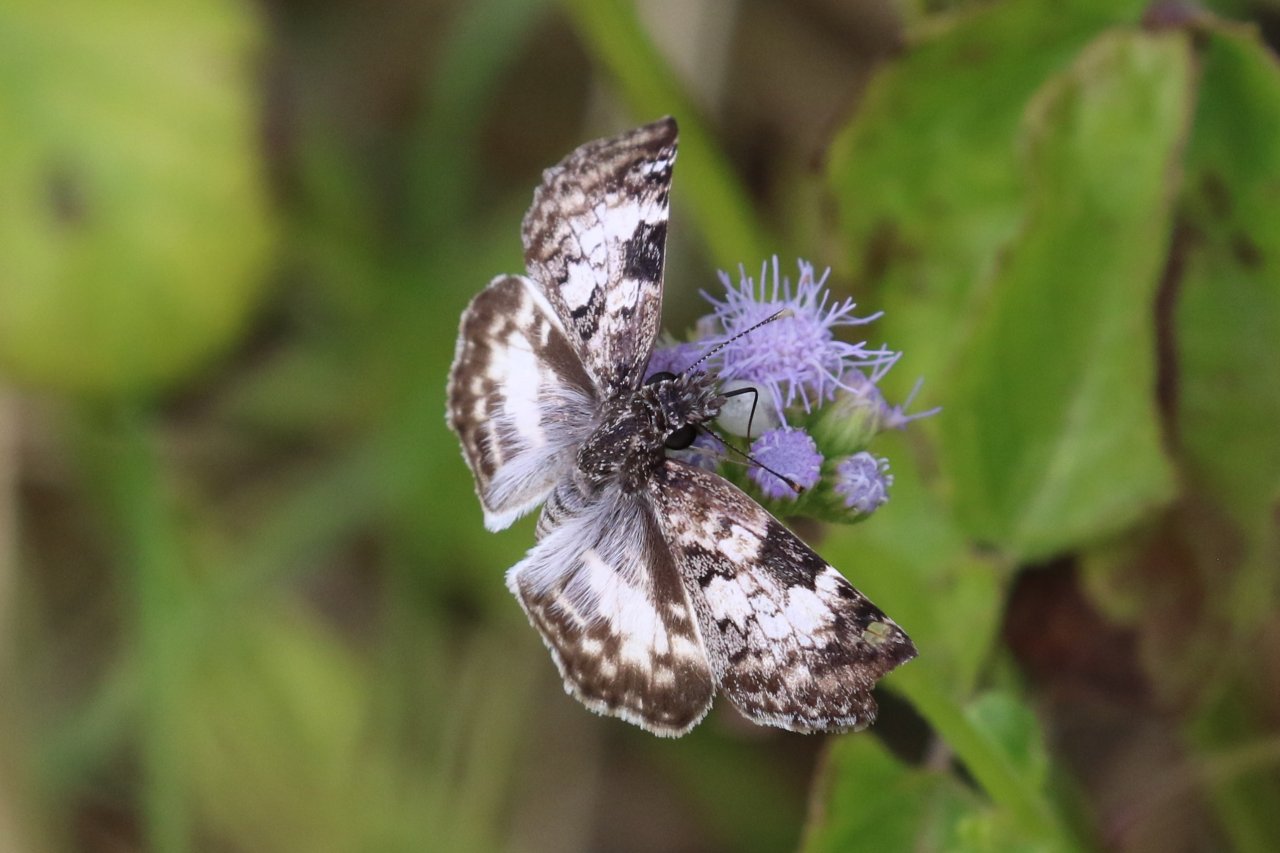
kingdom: Animalia
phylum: Arthropoda
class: Insecta
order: Lepidoptera
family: Hesperiidae
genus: Chiomara
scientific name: Chiomara asychis
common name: White-patched Skipper
